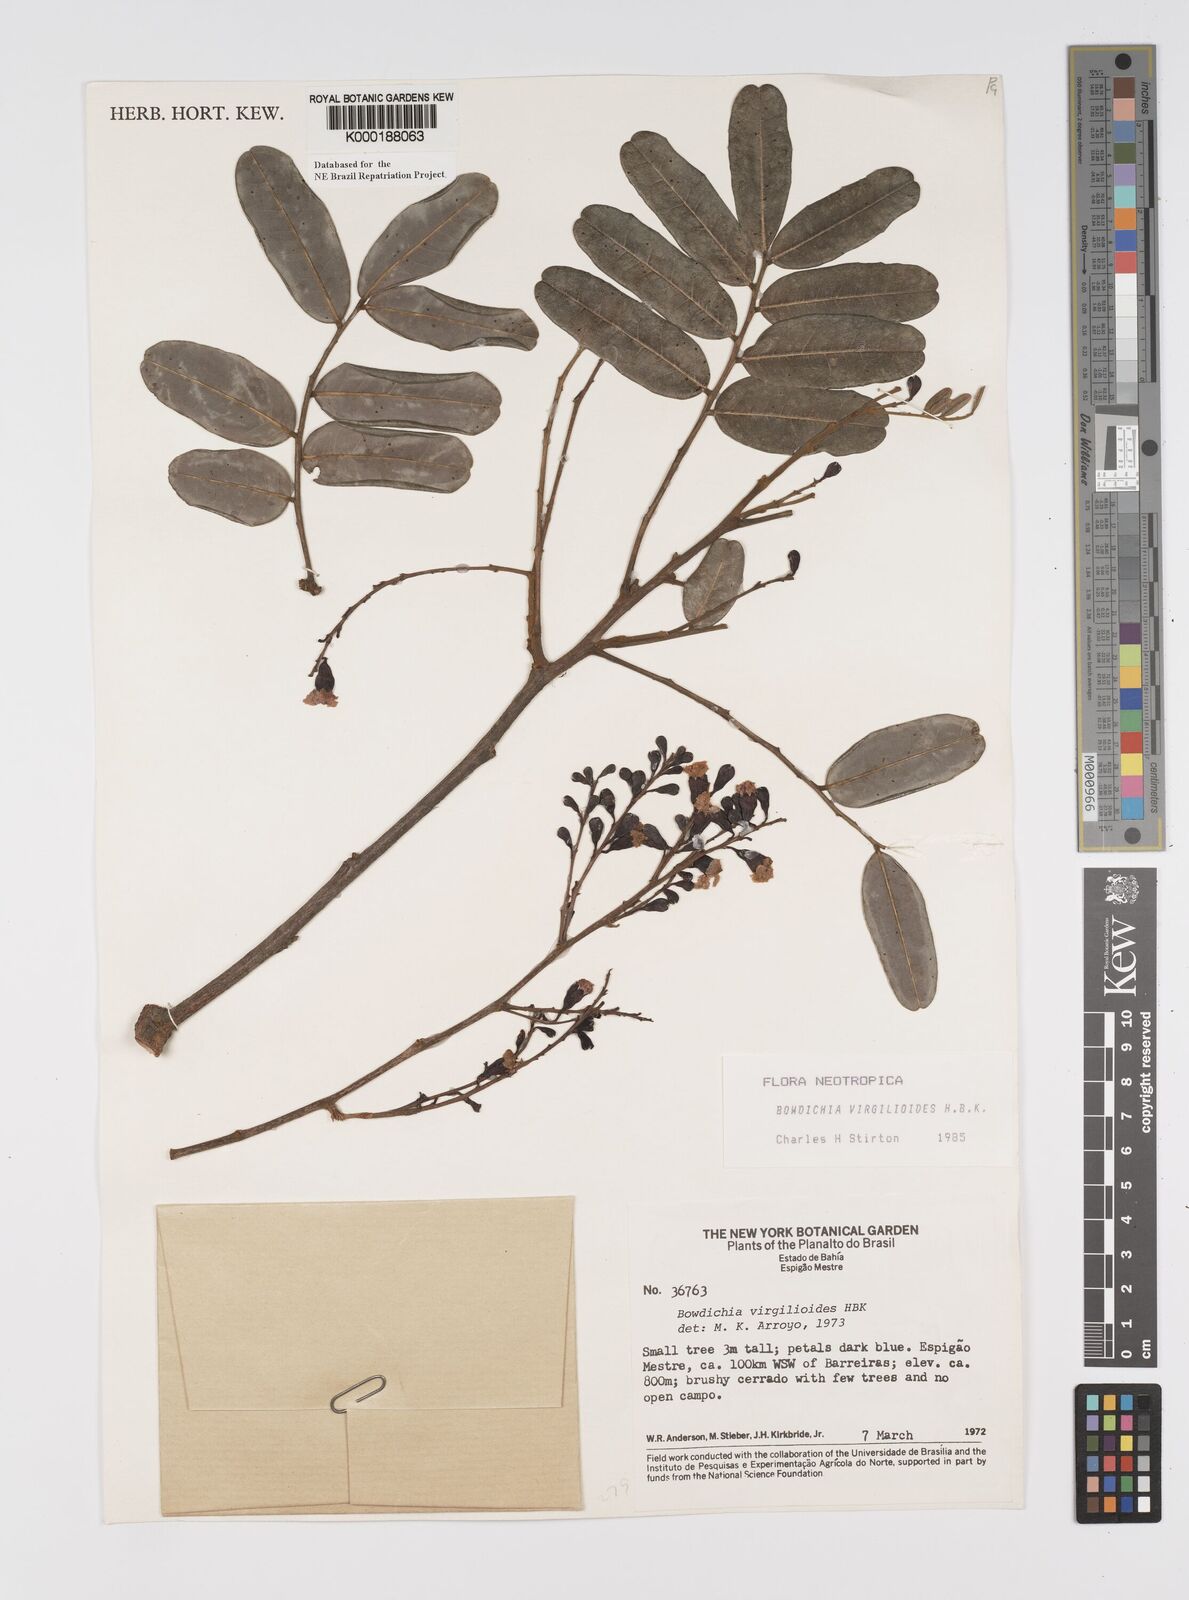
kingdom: Plantae
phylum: Tracheophyta
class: Magnoliopsida
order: Fabales
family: Fabaceae
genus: Bowdichia
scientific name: Bowdichia virgilioides
